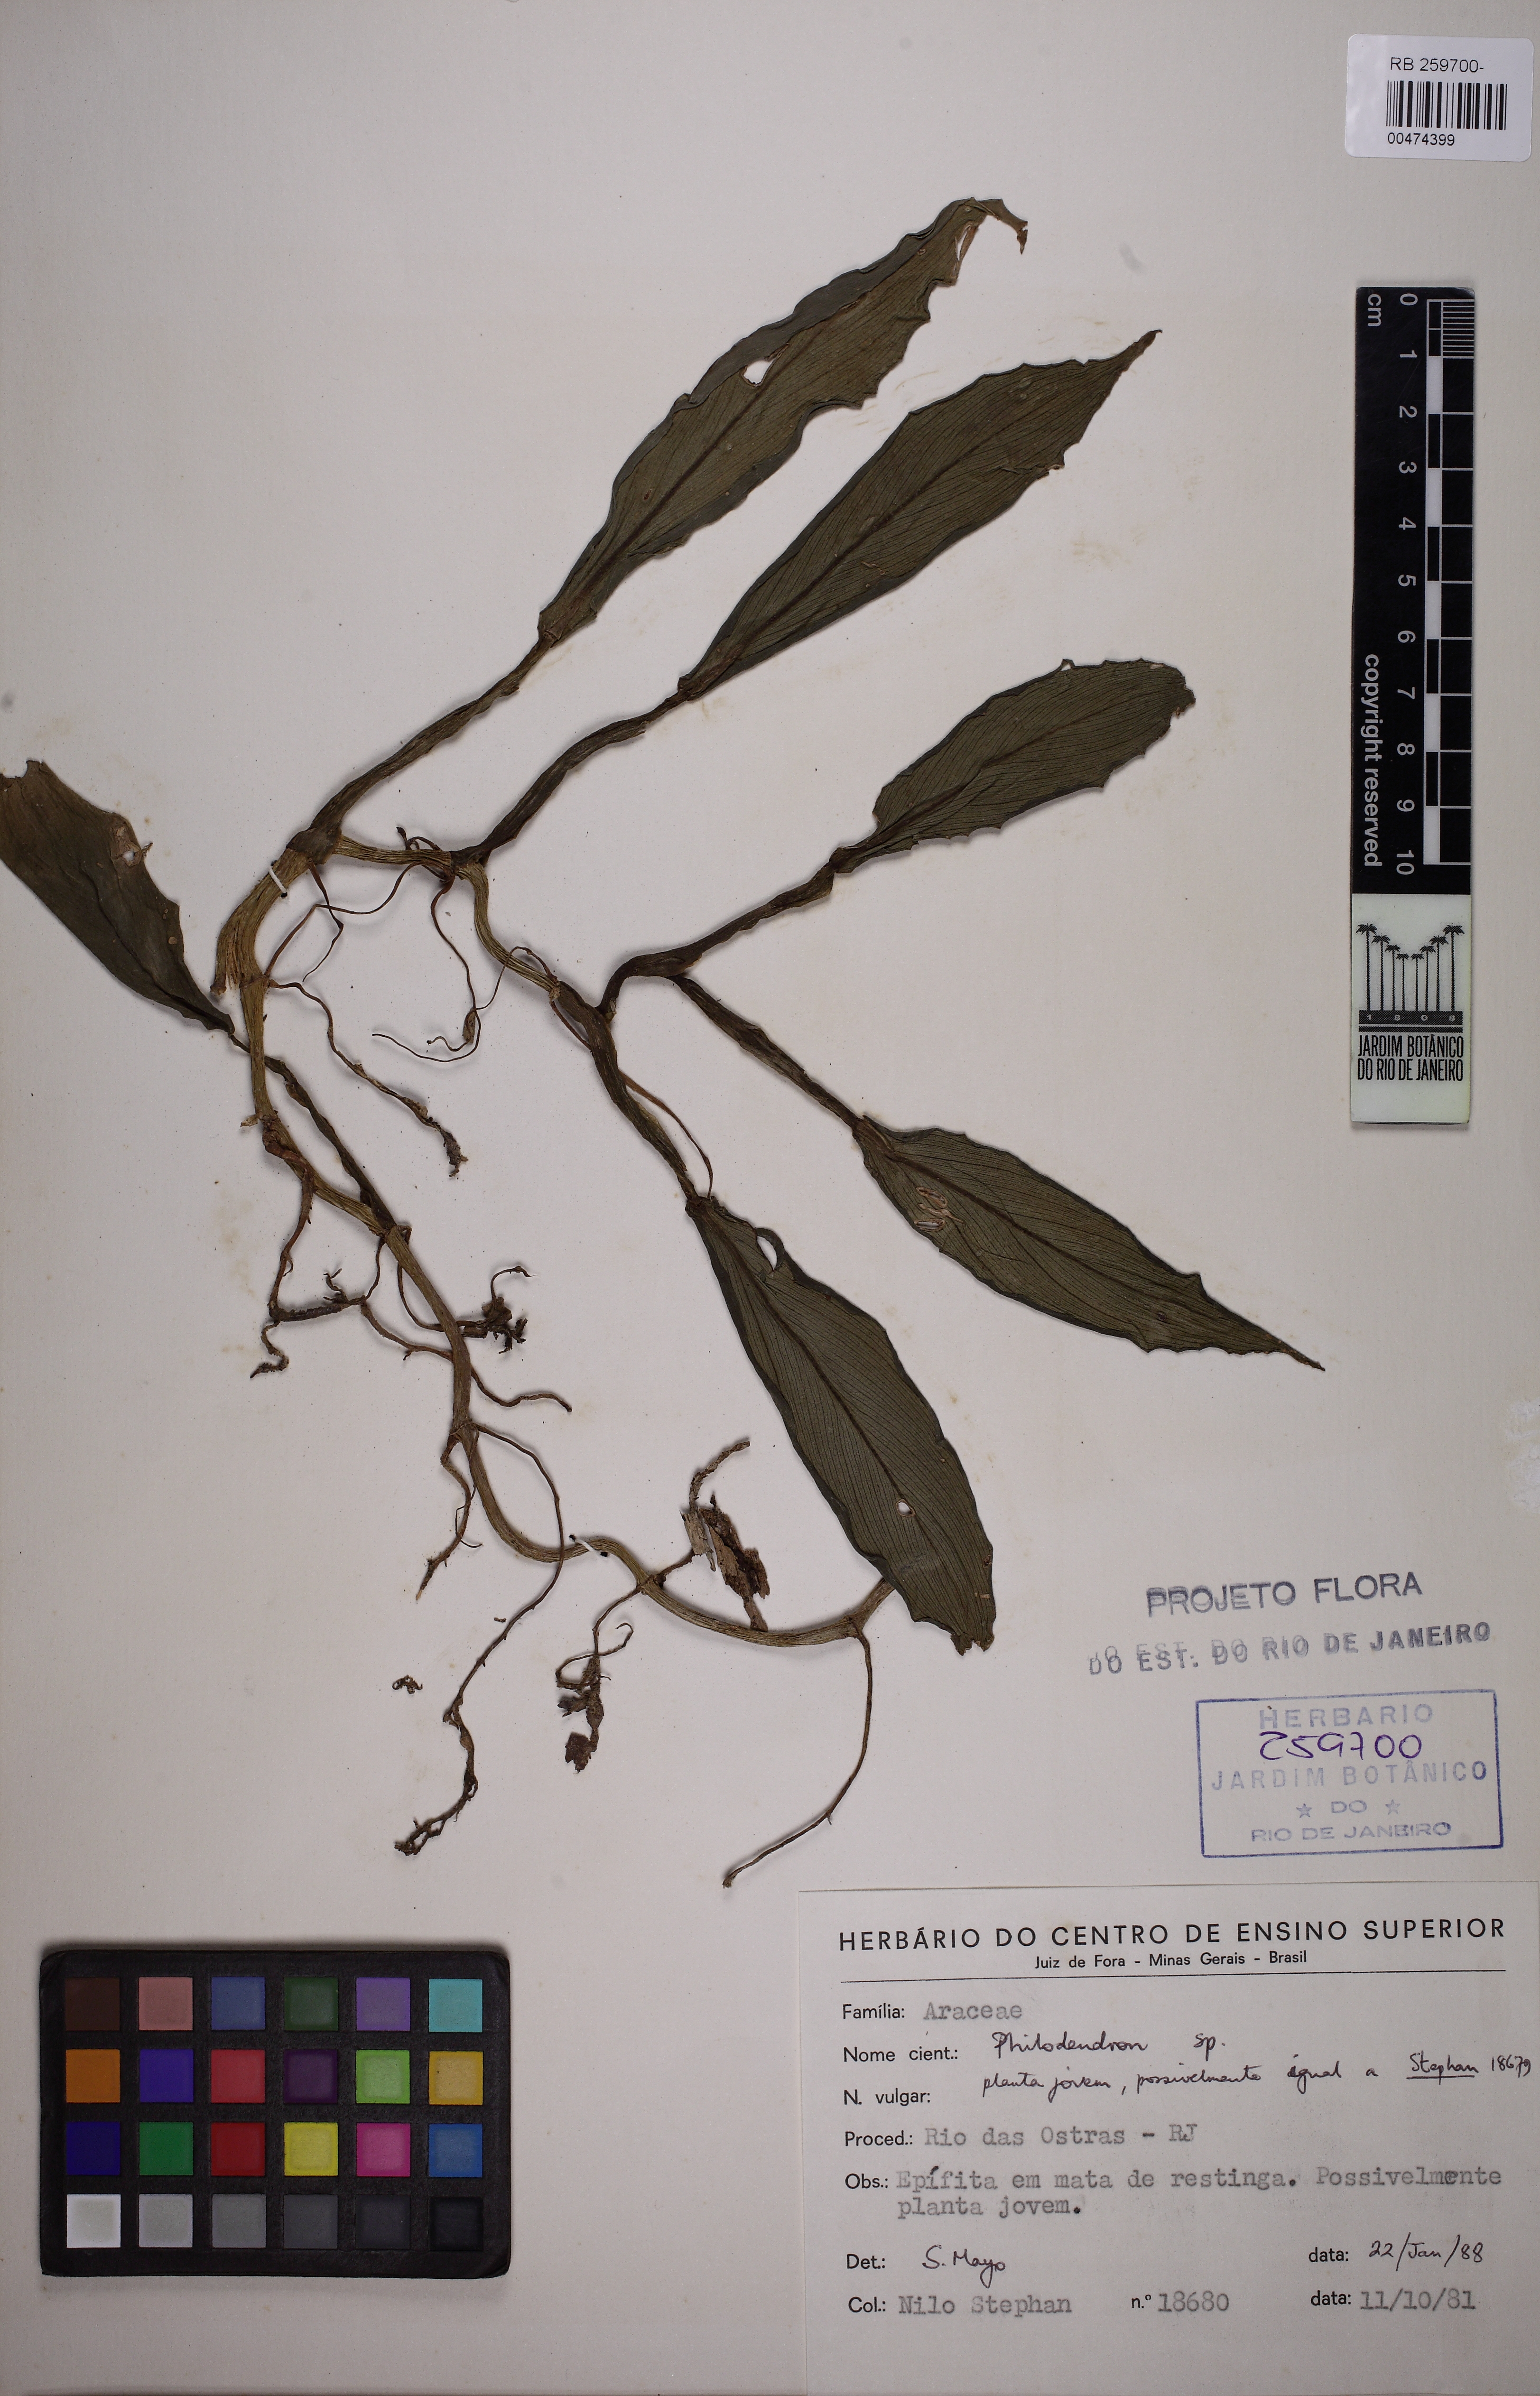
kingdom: Plantae
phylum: Tracheophyta
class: Liliopsida
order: Alismatales
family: Araceae
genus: Philodendron
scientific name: Philodendron
